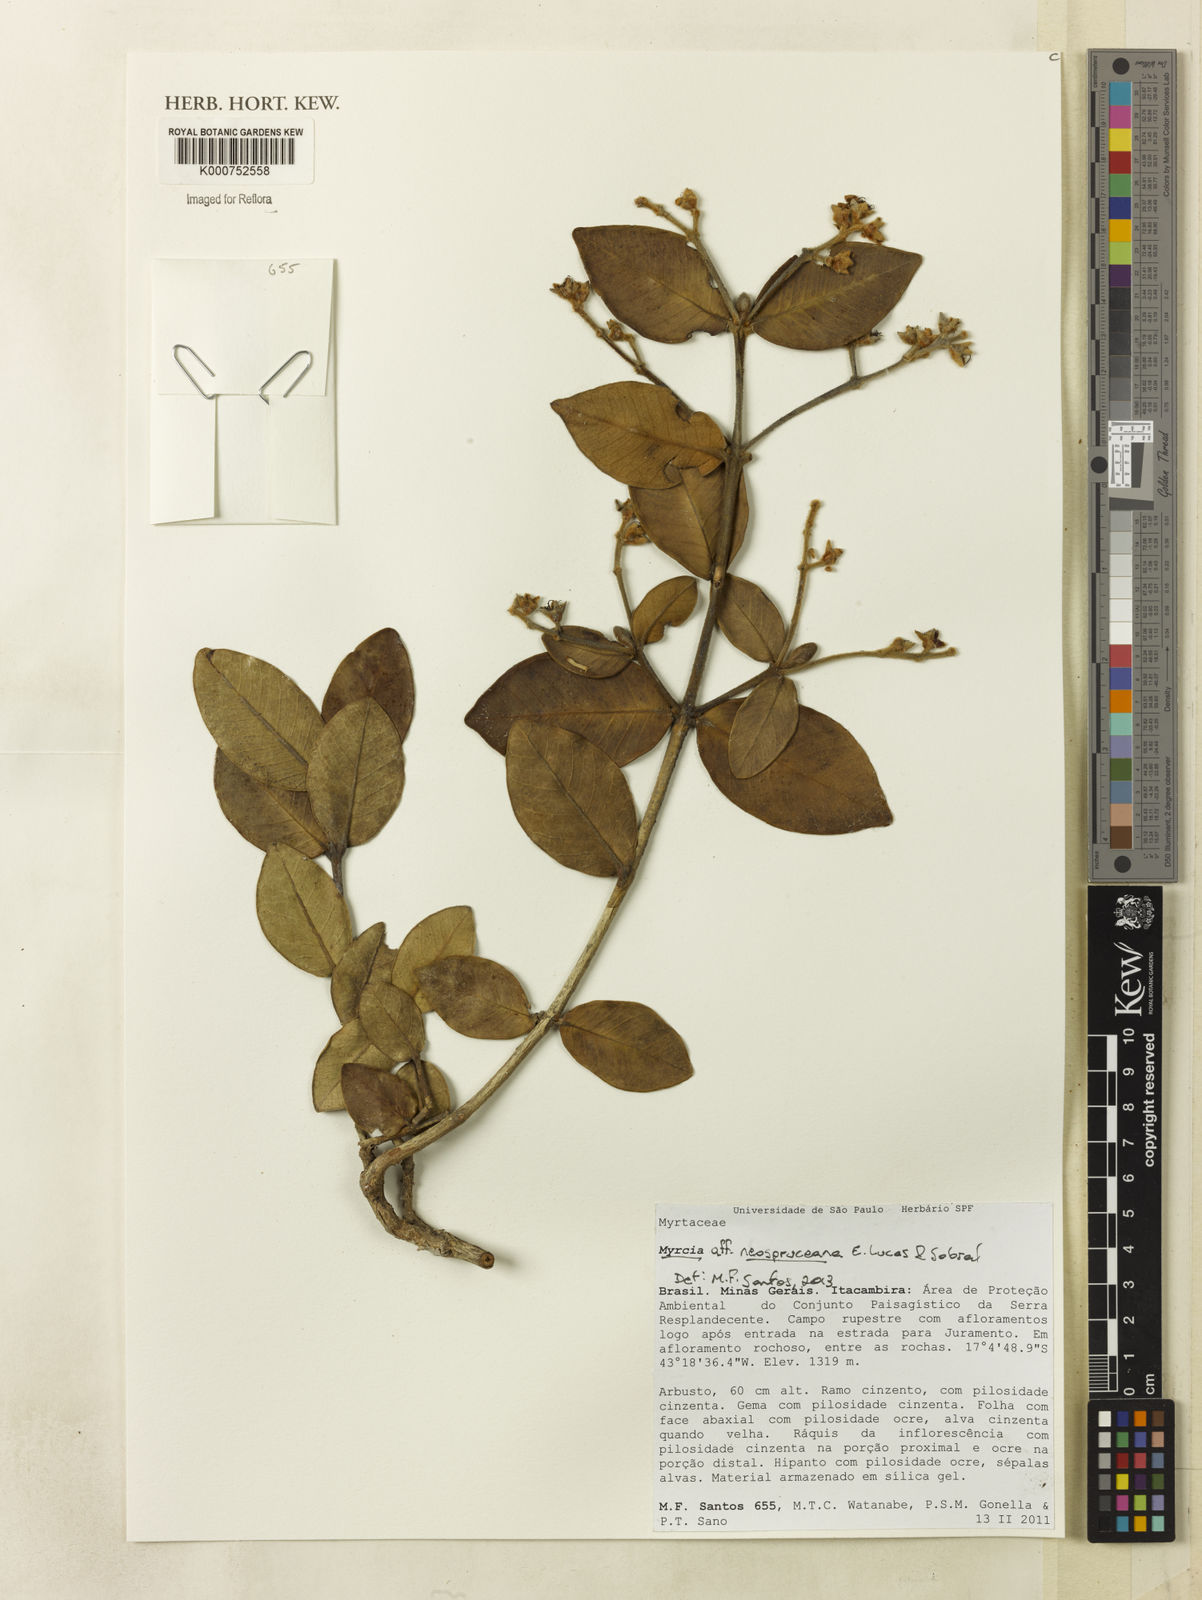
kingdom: Plantae
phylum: Tracheophyta
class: Magnoliopsida
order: Myrtales
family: Myrtaceae
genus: Myrcia
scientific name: Myrcia neospruceana
